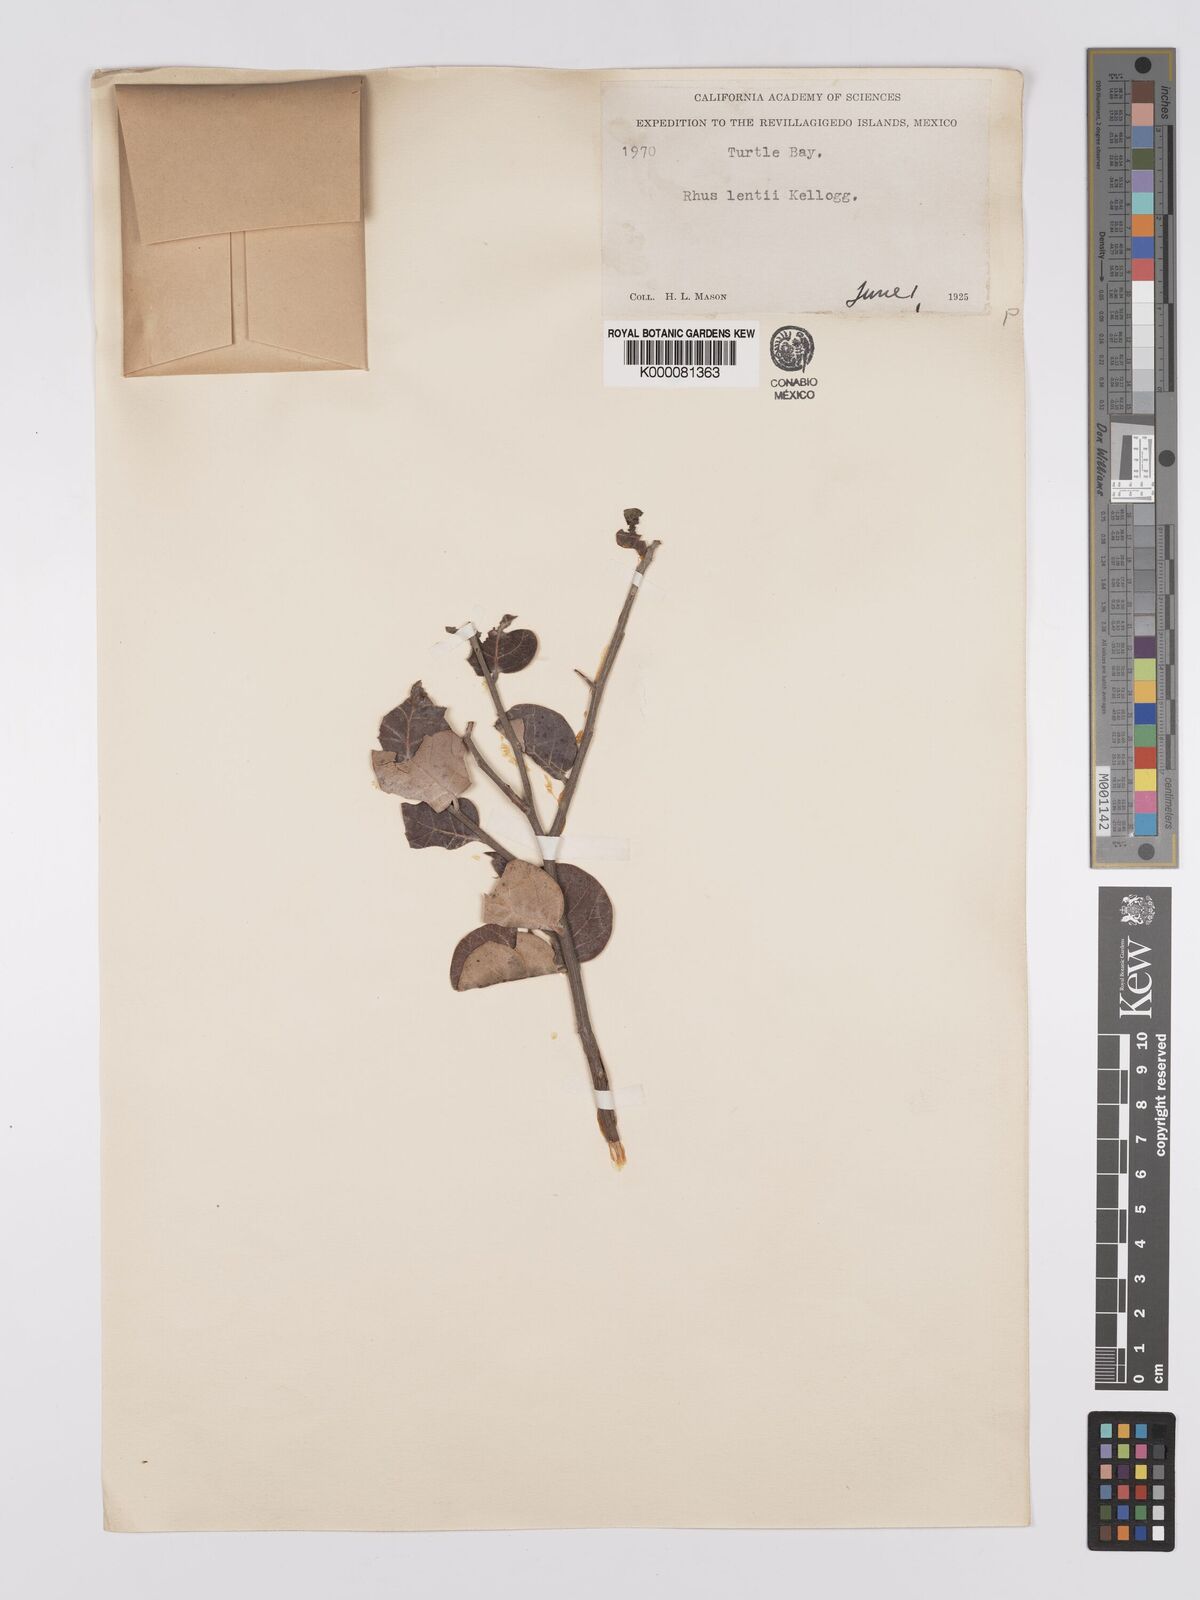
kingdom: Plantae
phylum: Tracheophyta
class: Magnoliopsida
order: Sapindales
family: Anacardiaceae
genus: Rhus
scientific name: Rhus lentii
